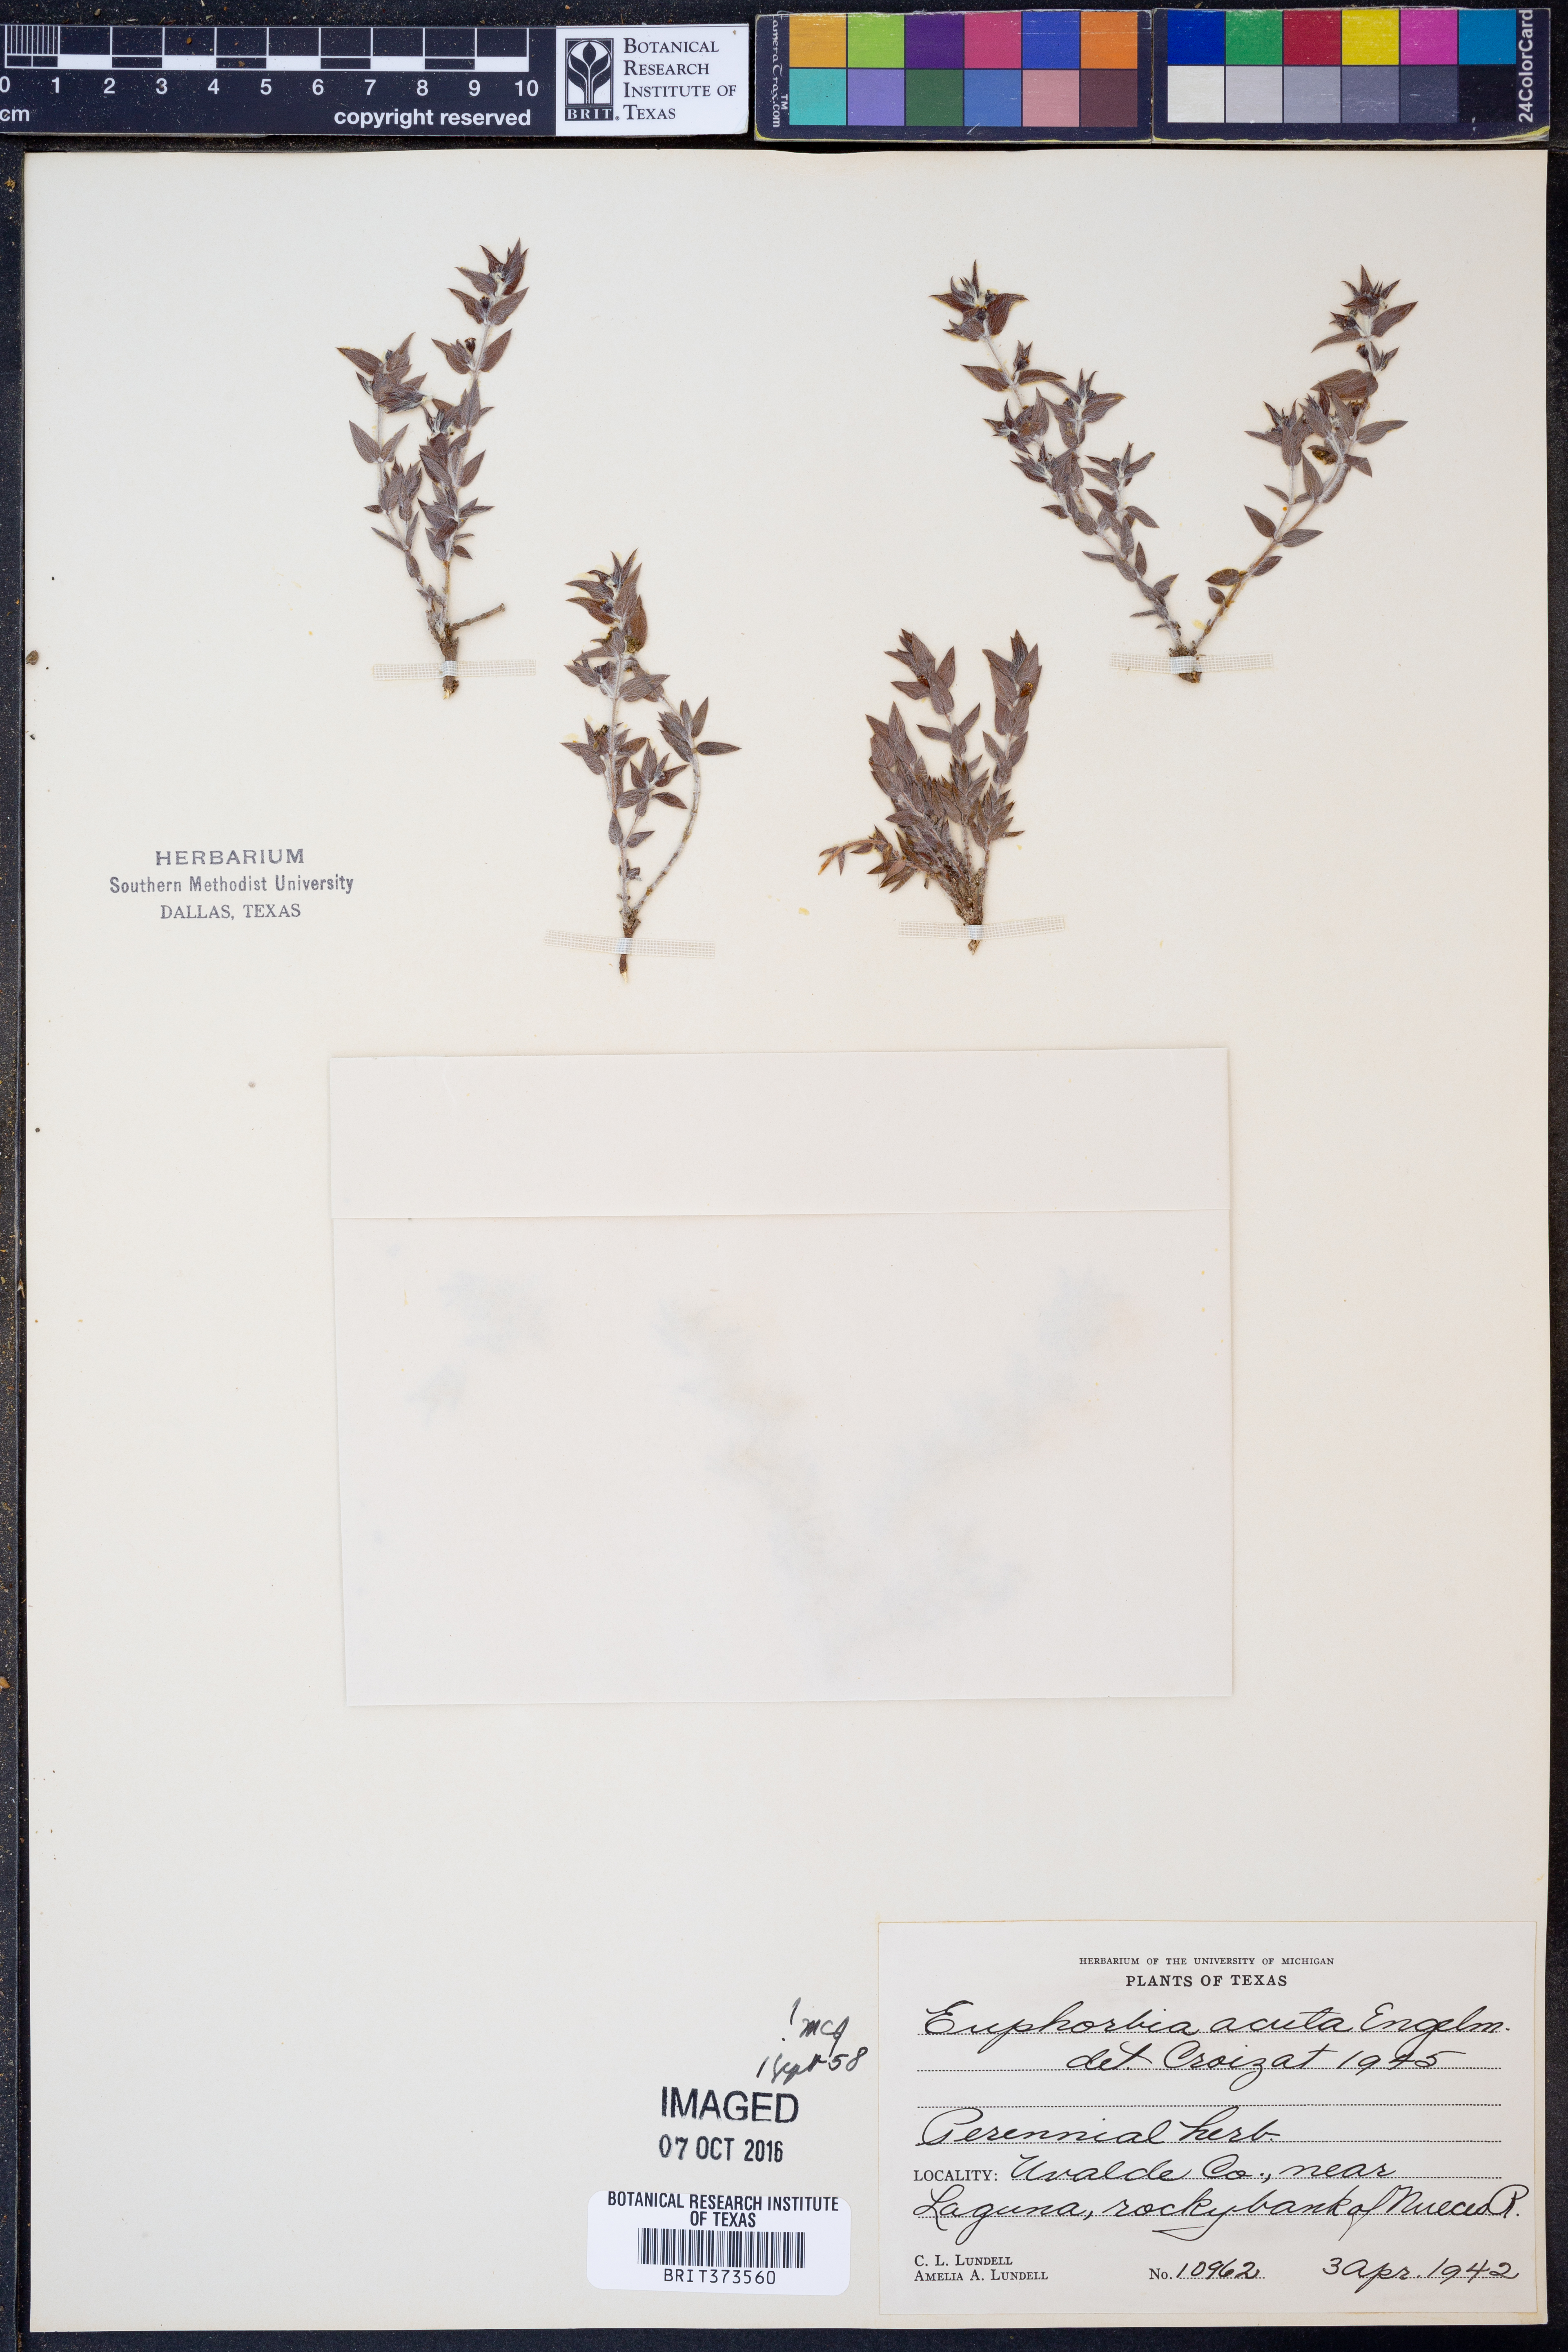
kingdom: Plantae
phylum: Tracheophyta
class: Magnoliopsida
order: Malpighiales
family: Euphorbiaceae
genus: Euphorbia
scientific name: Euphorbia acuta
